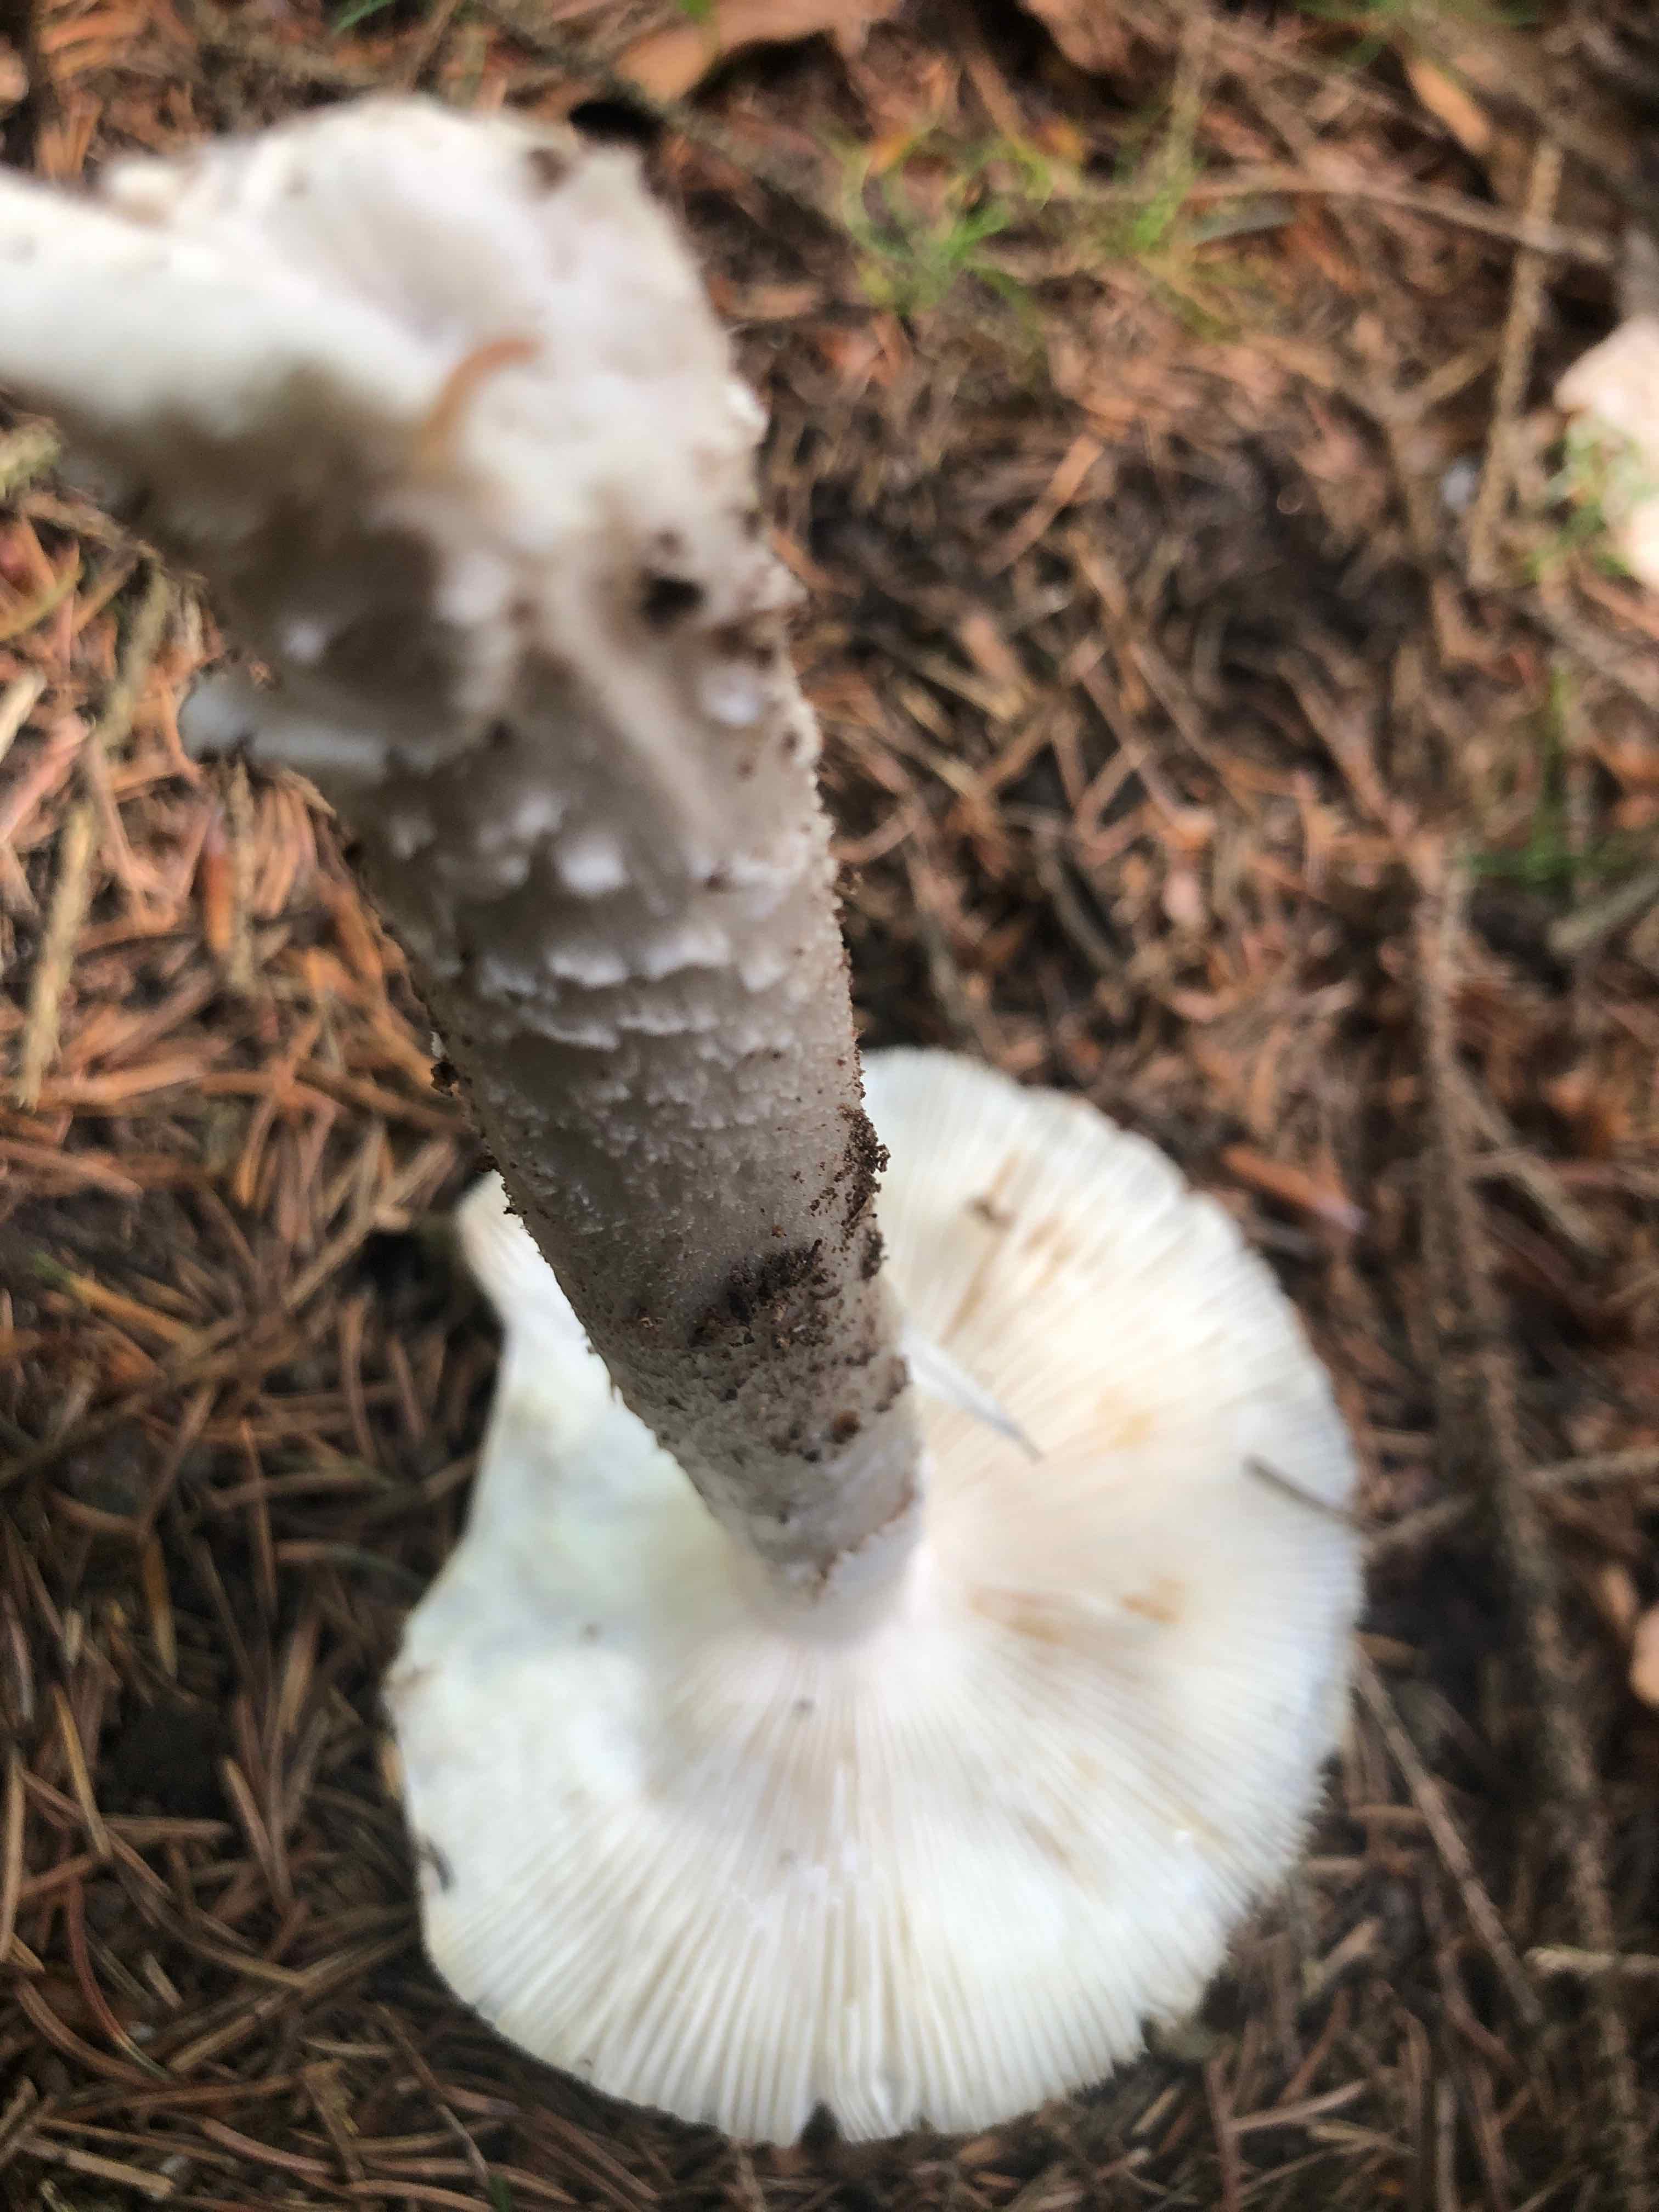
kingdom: Fungi
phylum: Basidiomycota
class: Agaricomycetes
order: Agaricales
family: Amanitaceae
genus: Amanita
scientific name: Amanita
